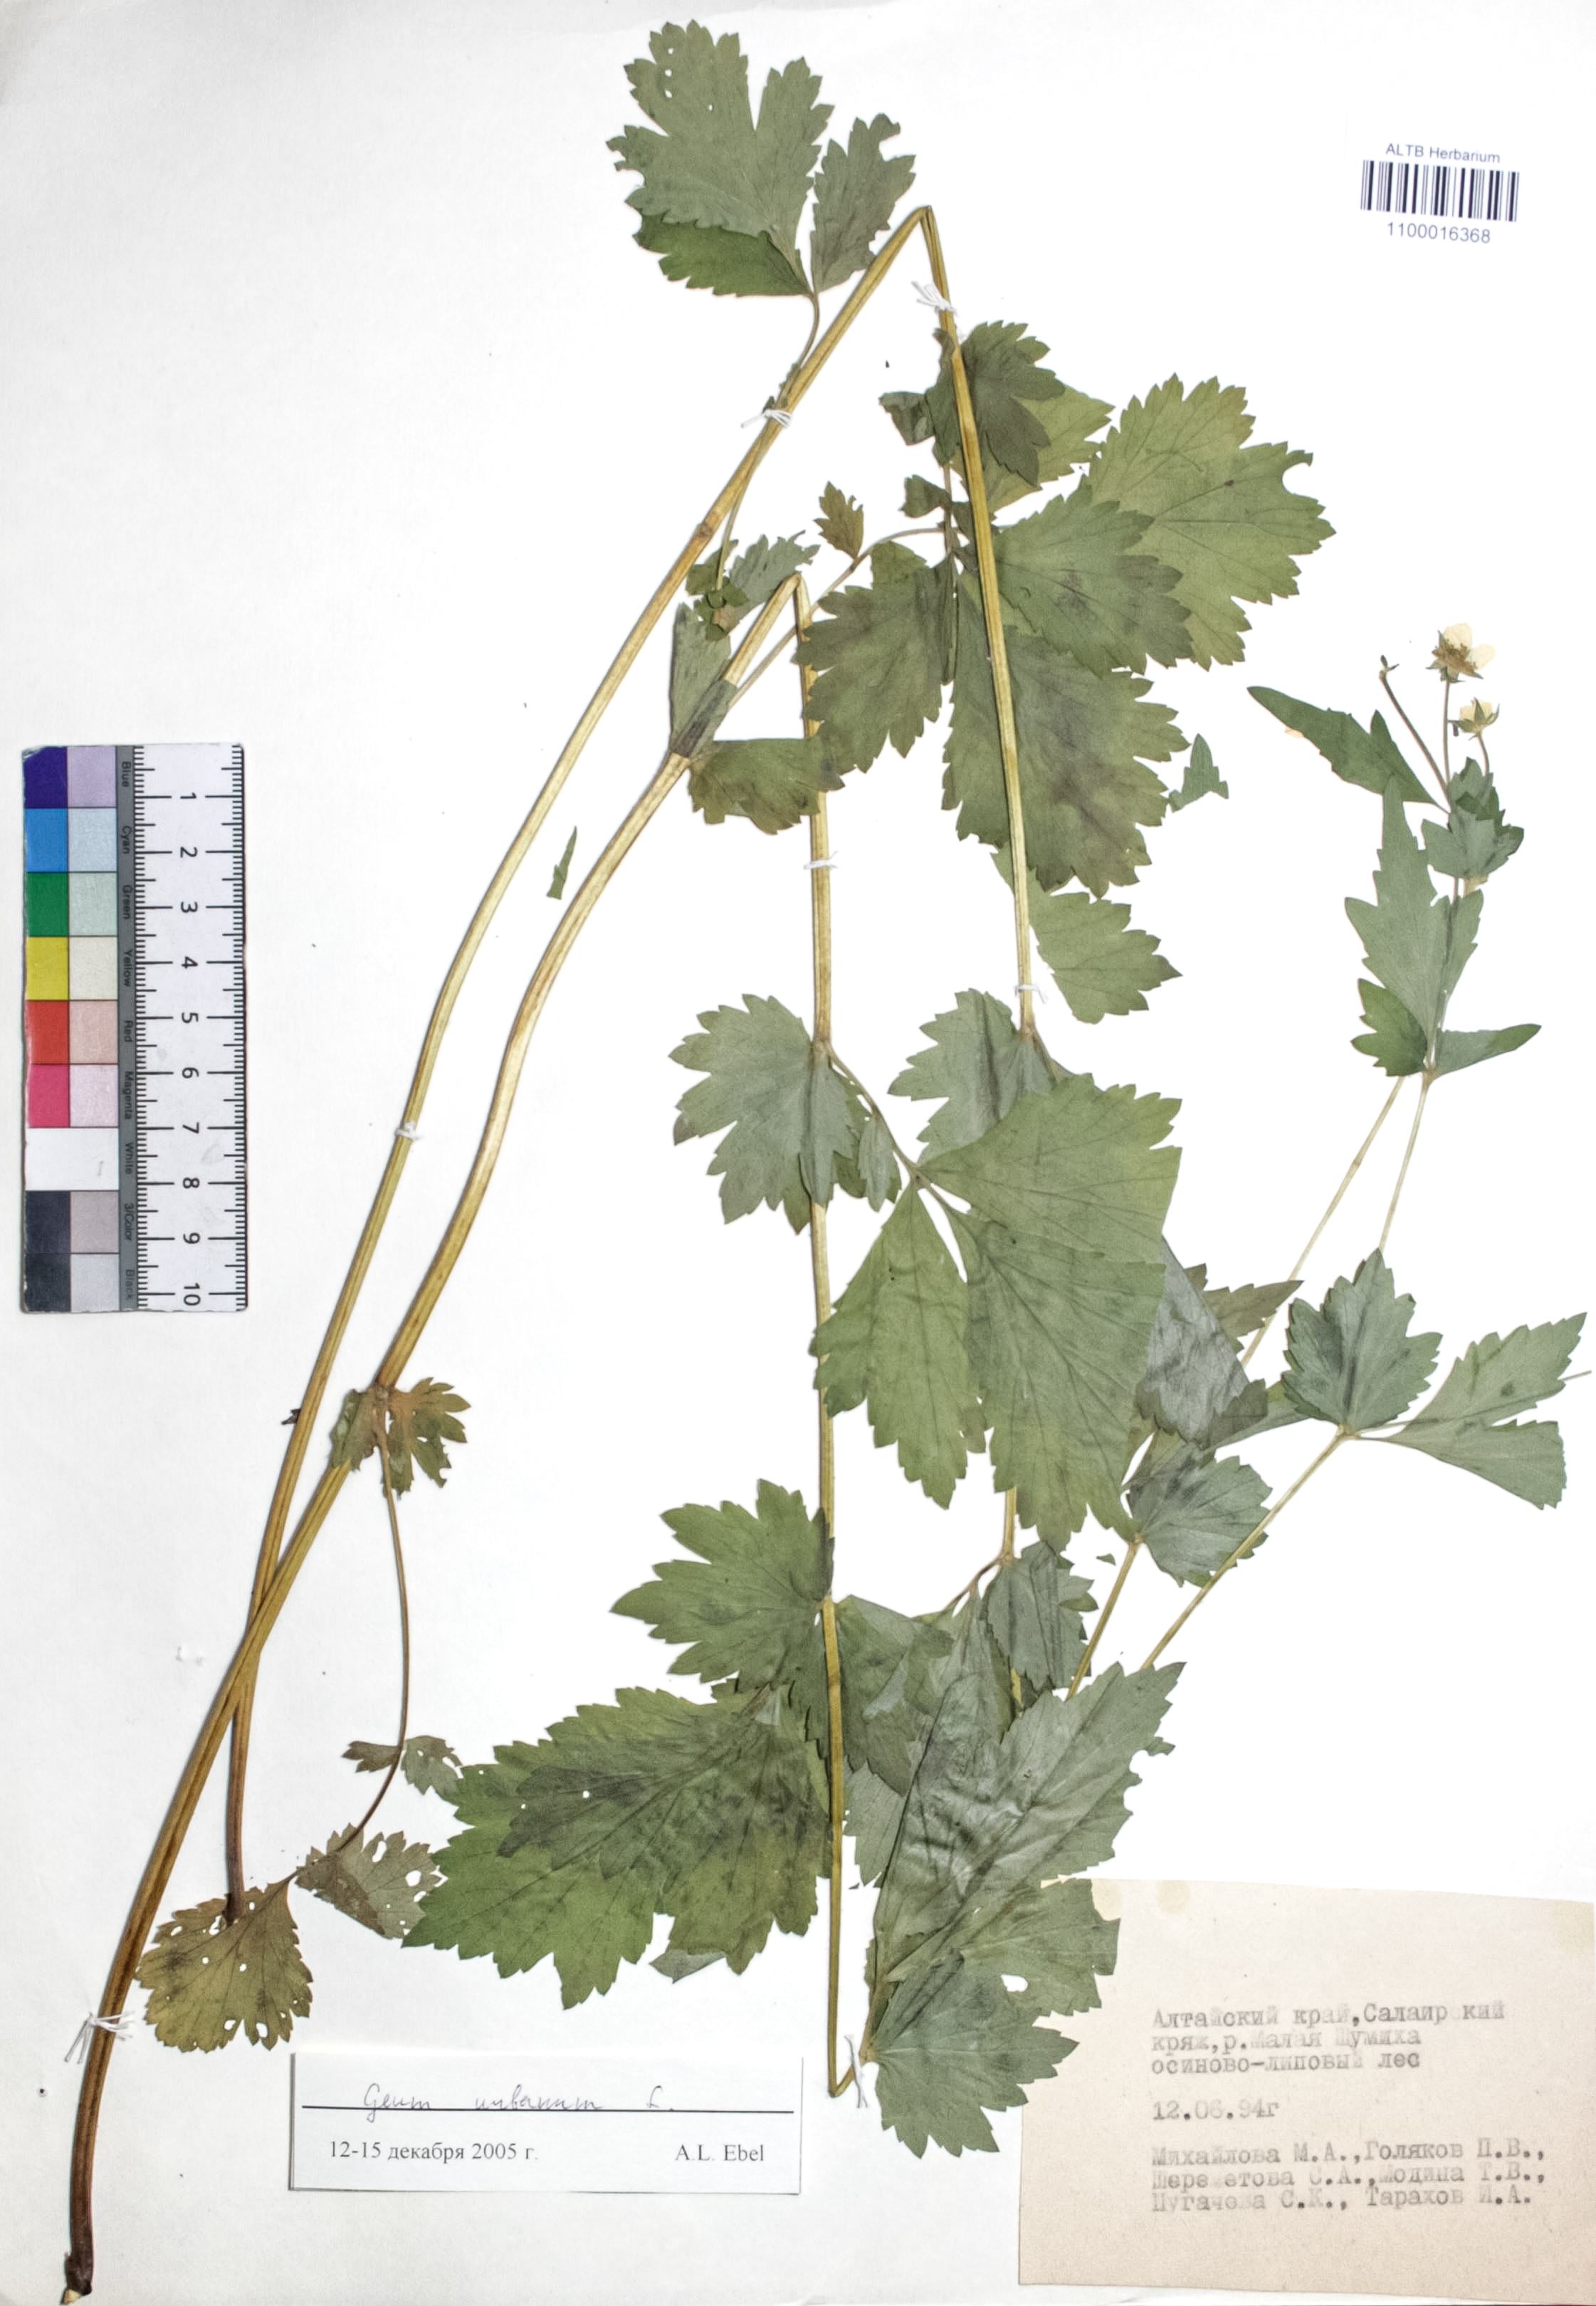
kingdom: Plantae
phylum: Tracheophyta
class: Magnoliopsida
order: Rosales
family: Rosaceae
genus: Geum
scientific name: Geum urbanum
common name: Wood avens
